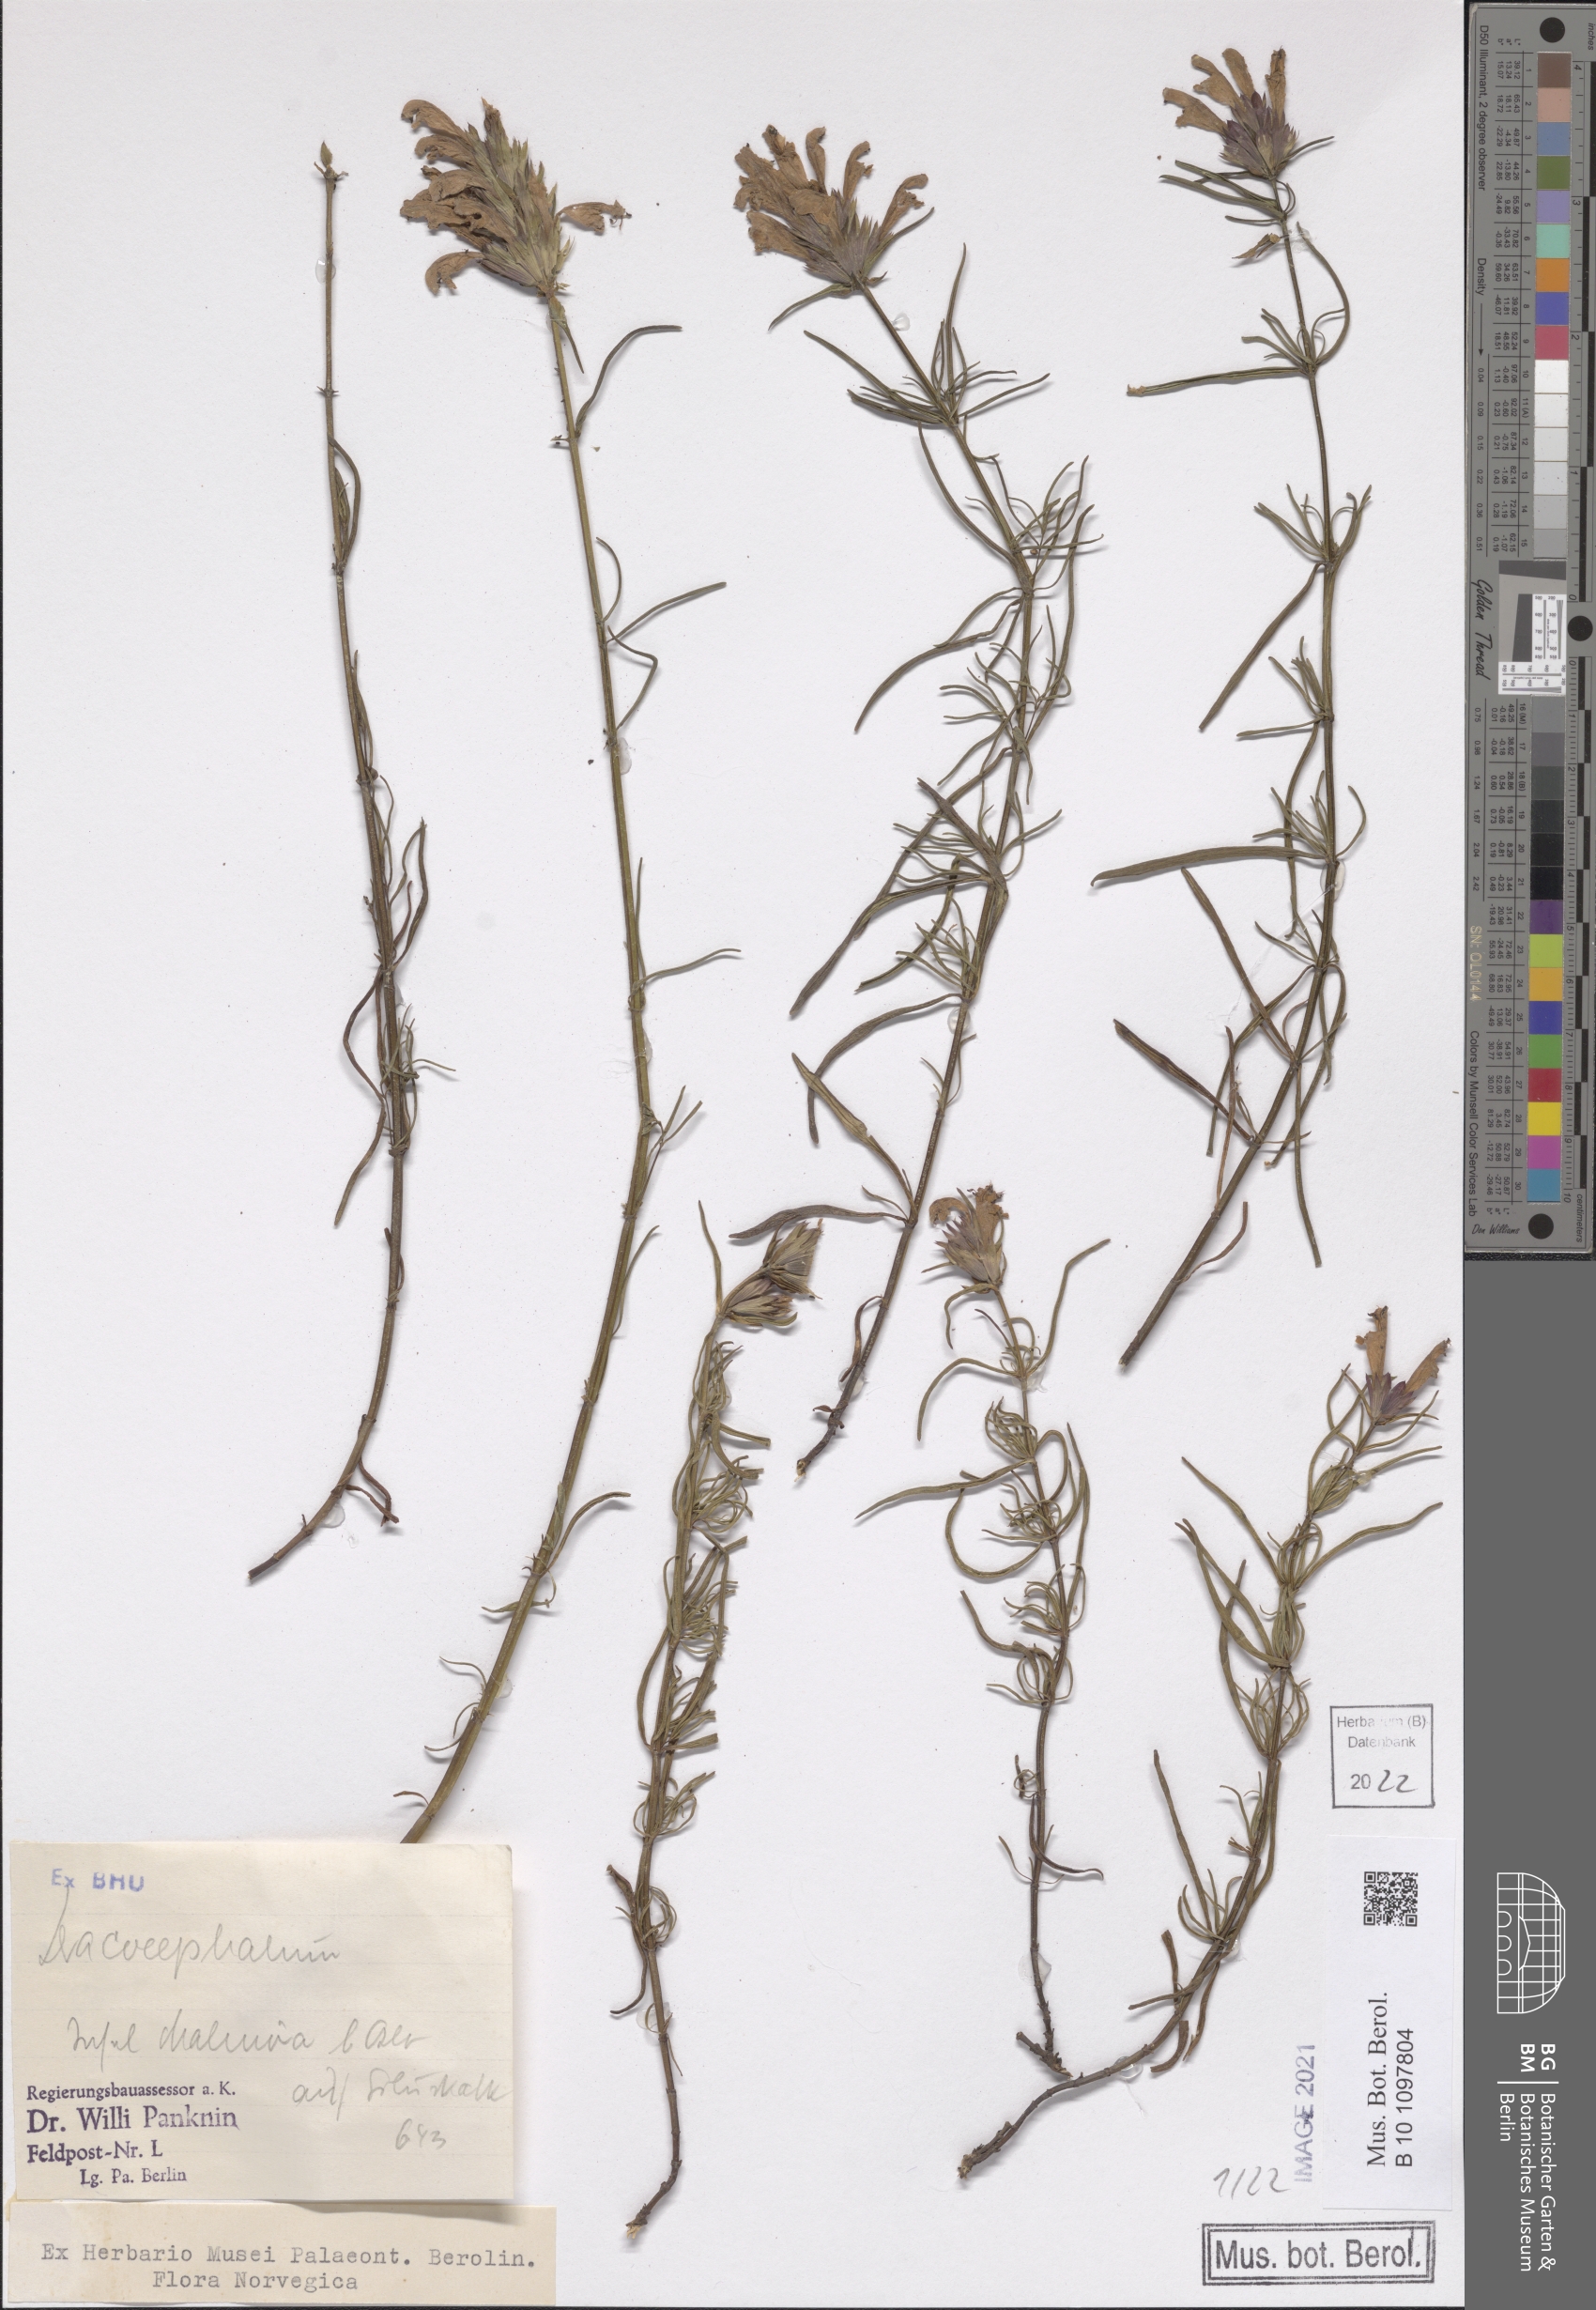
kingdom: Plantae
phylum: Tracheophyta
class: Magnoliopsida
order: Lamiales
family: Lamiaceae
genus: Dracocephalum
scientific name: Dracocephalum
